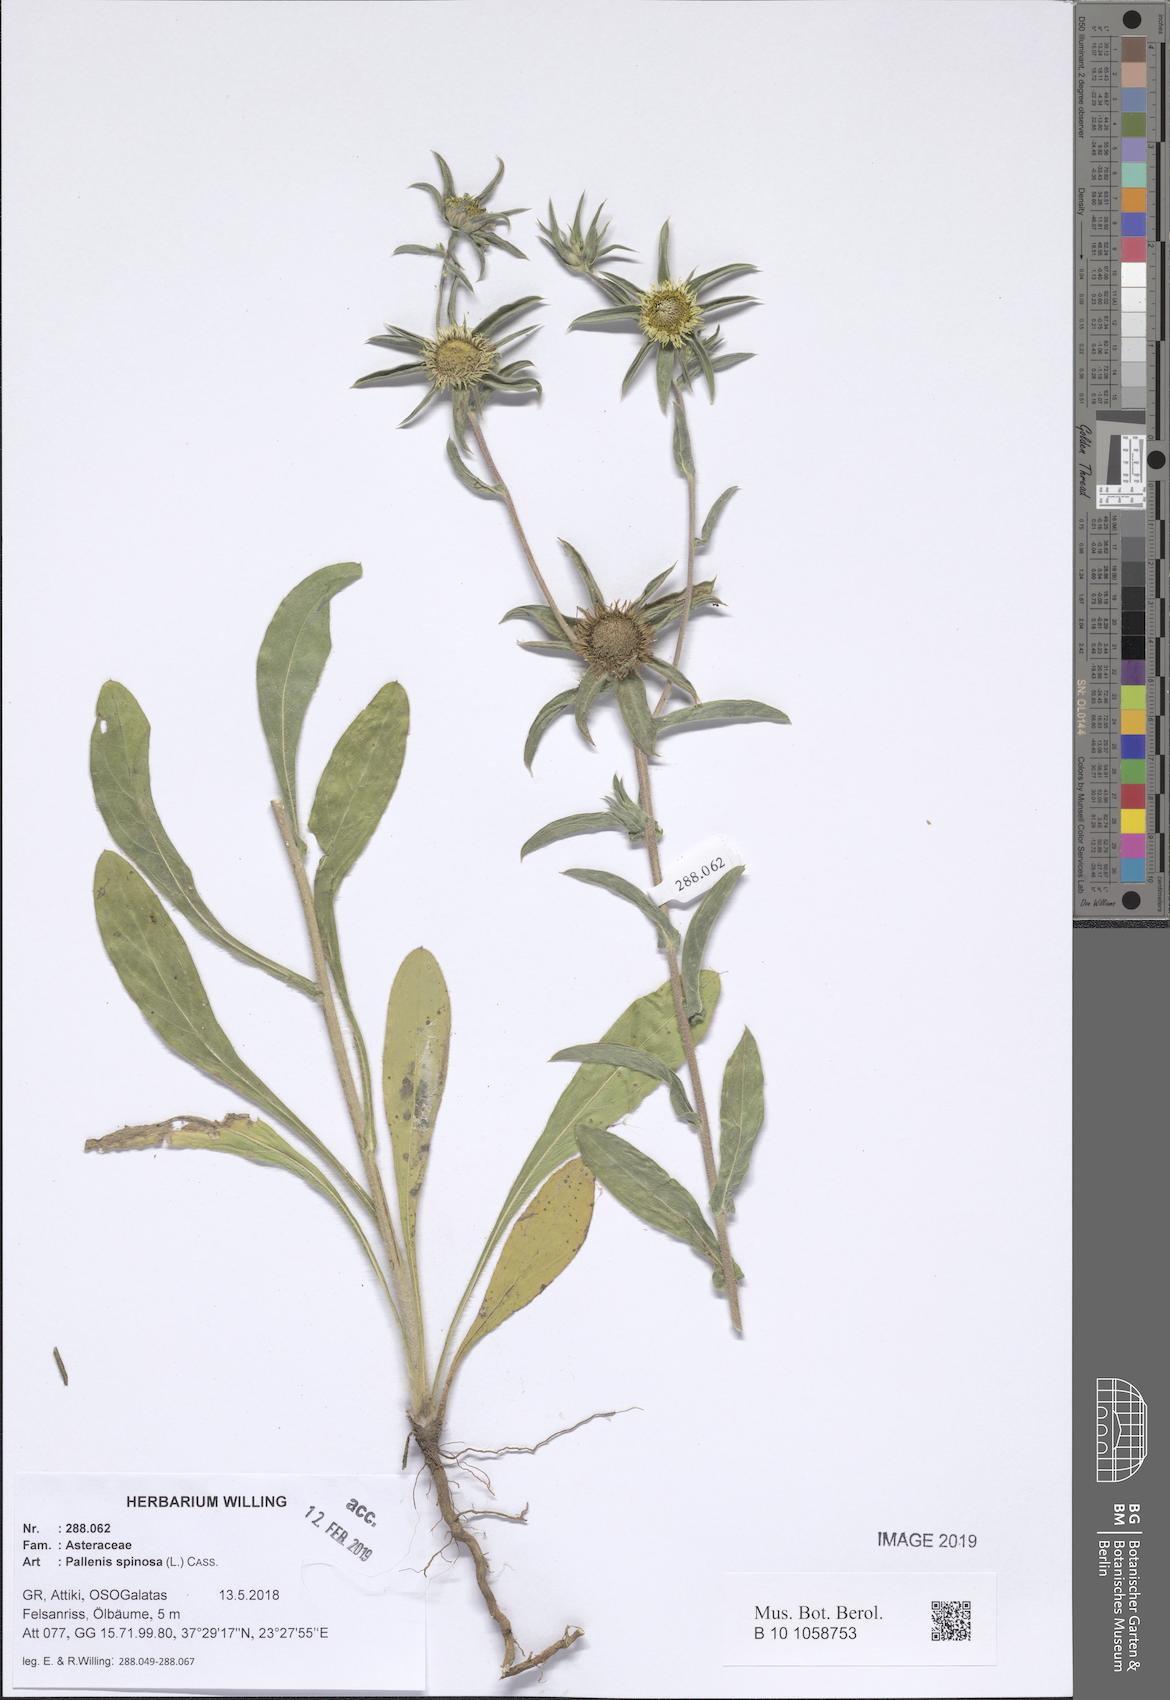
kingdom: Plantae
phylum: Tracheophyta
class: Magnoliopsida
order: Asterales
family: Asteraceae
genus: Pallenis
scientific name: Pallenis spinosa
